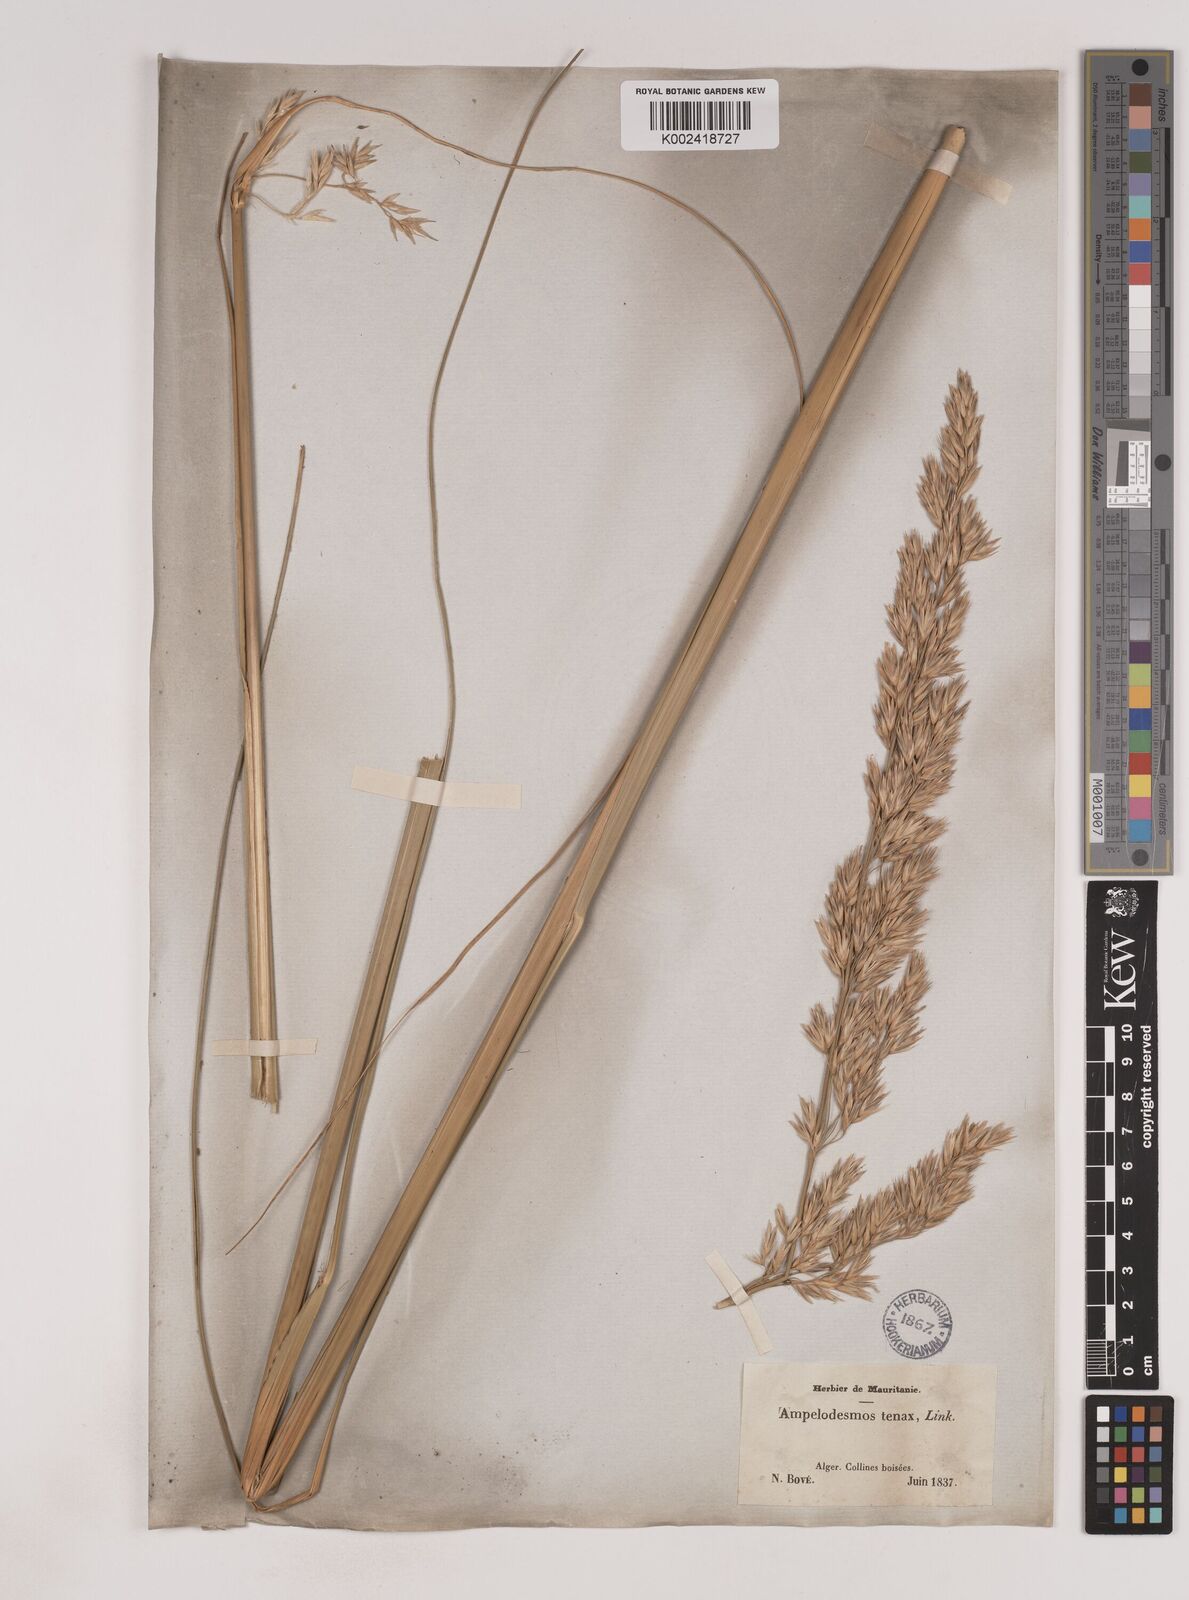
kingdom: Plantae
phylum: Tracheophyta
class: Liliopsida
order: Poales
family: Poaceae
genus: Ampelodesmos
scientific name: Ampelodesmos mauritanicus
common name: Mauritanian grass
